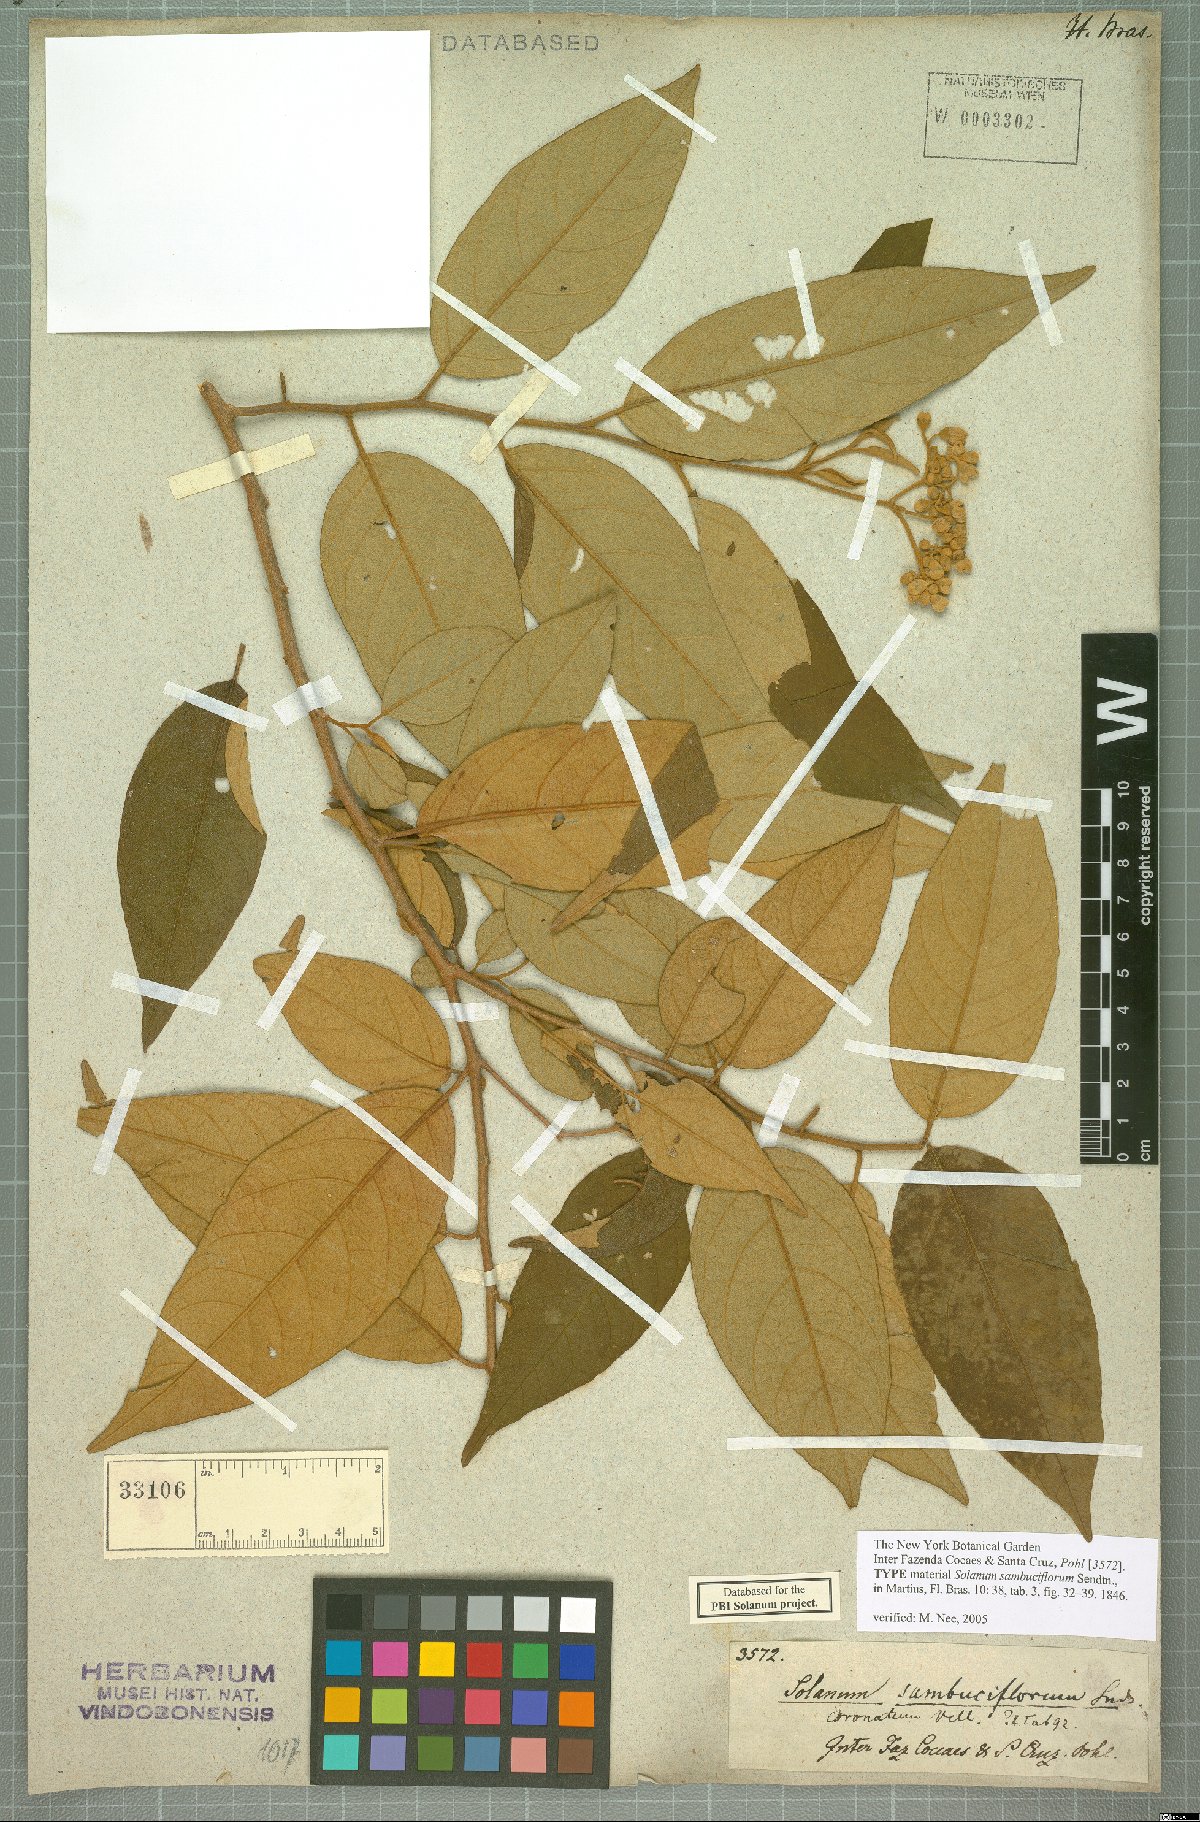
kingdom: Plantae
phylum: Tracheophyta
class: Magnoliopsida
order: Solanales
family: Solanaceae
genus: Solanum
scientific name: Solanum sambuciflorum
